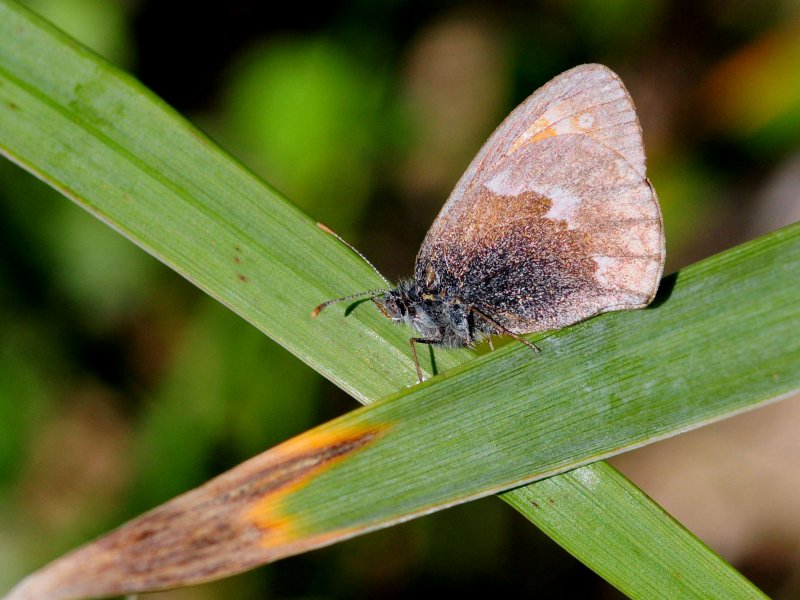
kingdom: Animalia
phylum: Arthropoda
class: Insecta
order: Lepidoptera
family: Nymphalidae
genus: Coenonympha
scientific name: Coenonympha tullia
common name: Large Heath
